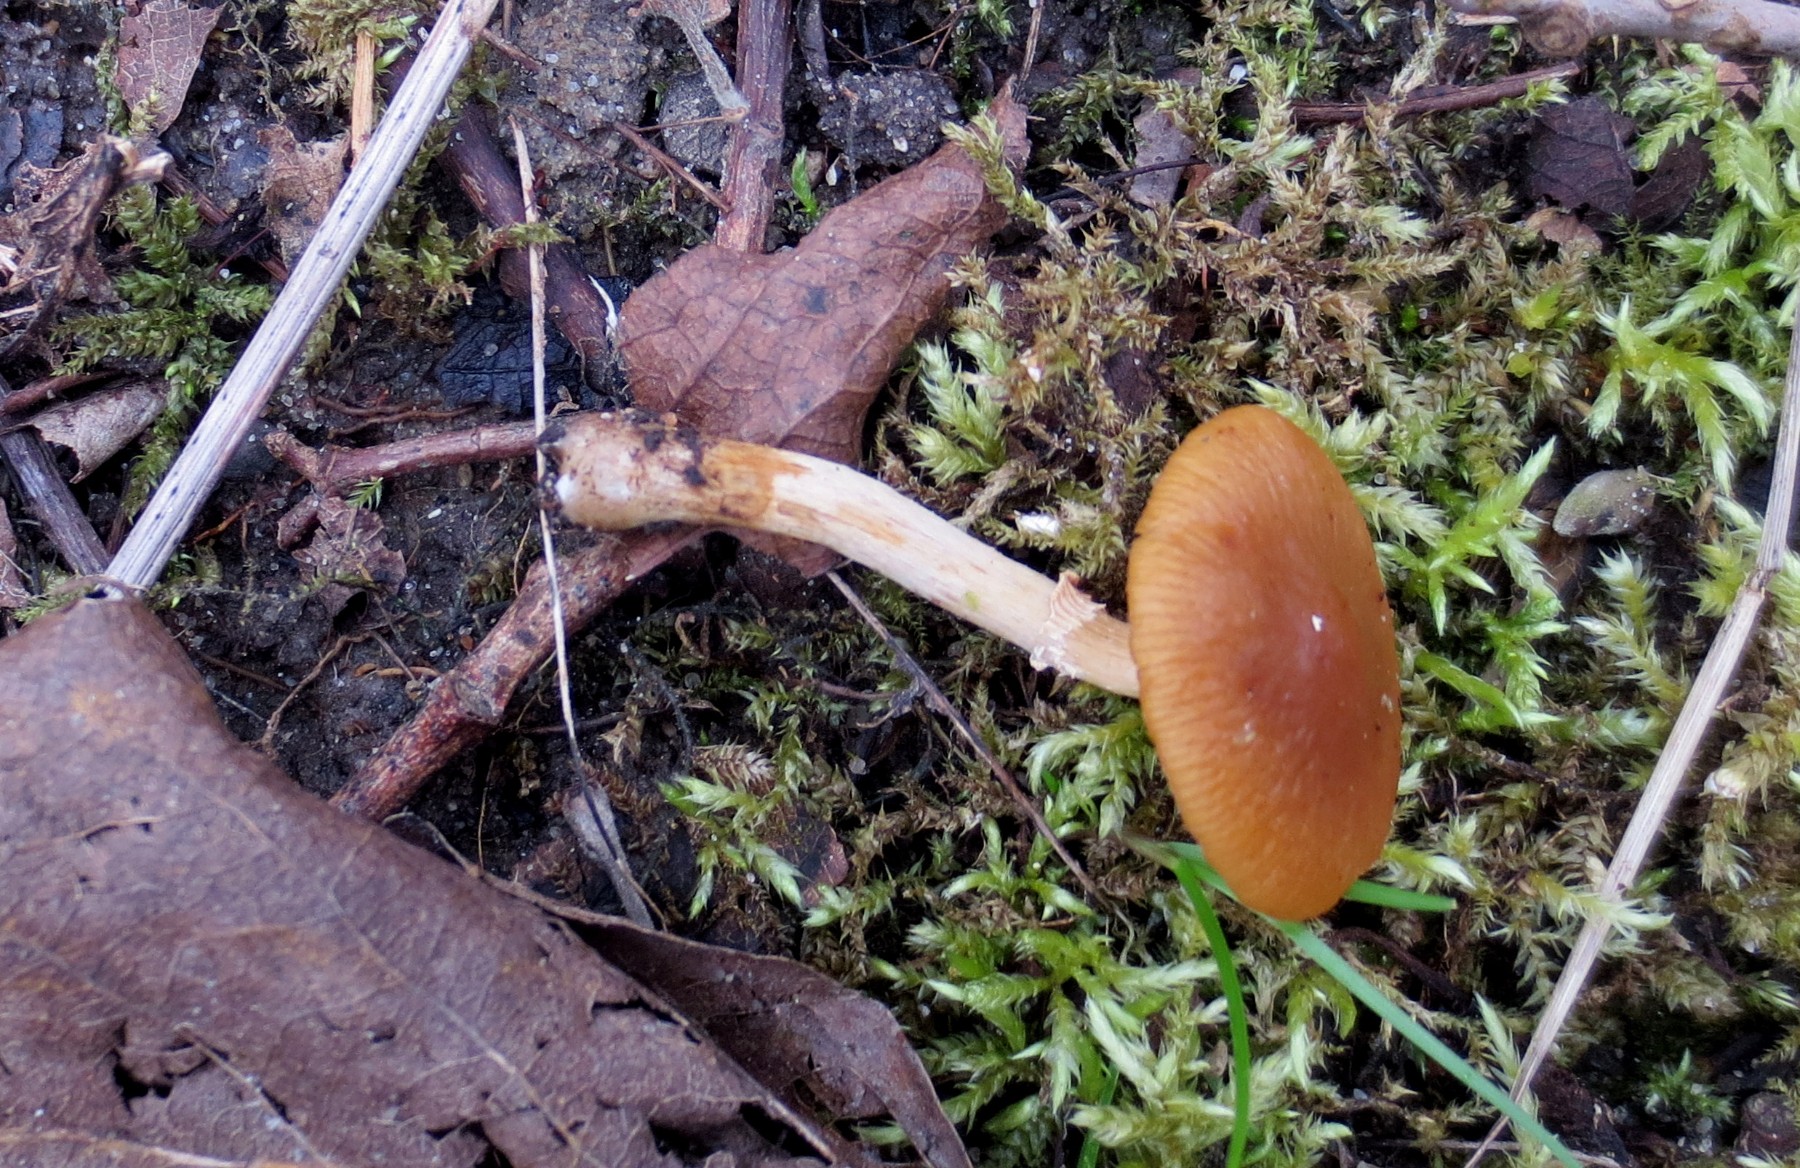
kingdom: Fungi
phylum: Basidiomycota
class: Agaricomycetes
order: Agaricales
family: Bolbitiaceae
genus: Conocybe
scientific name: Conocybe aporos
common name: tidlig dansehat
